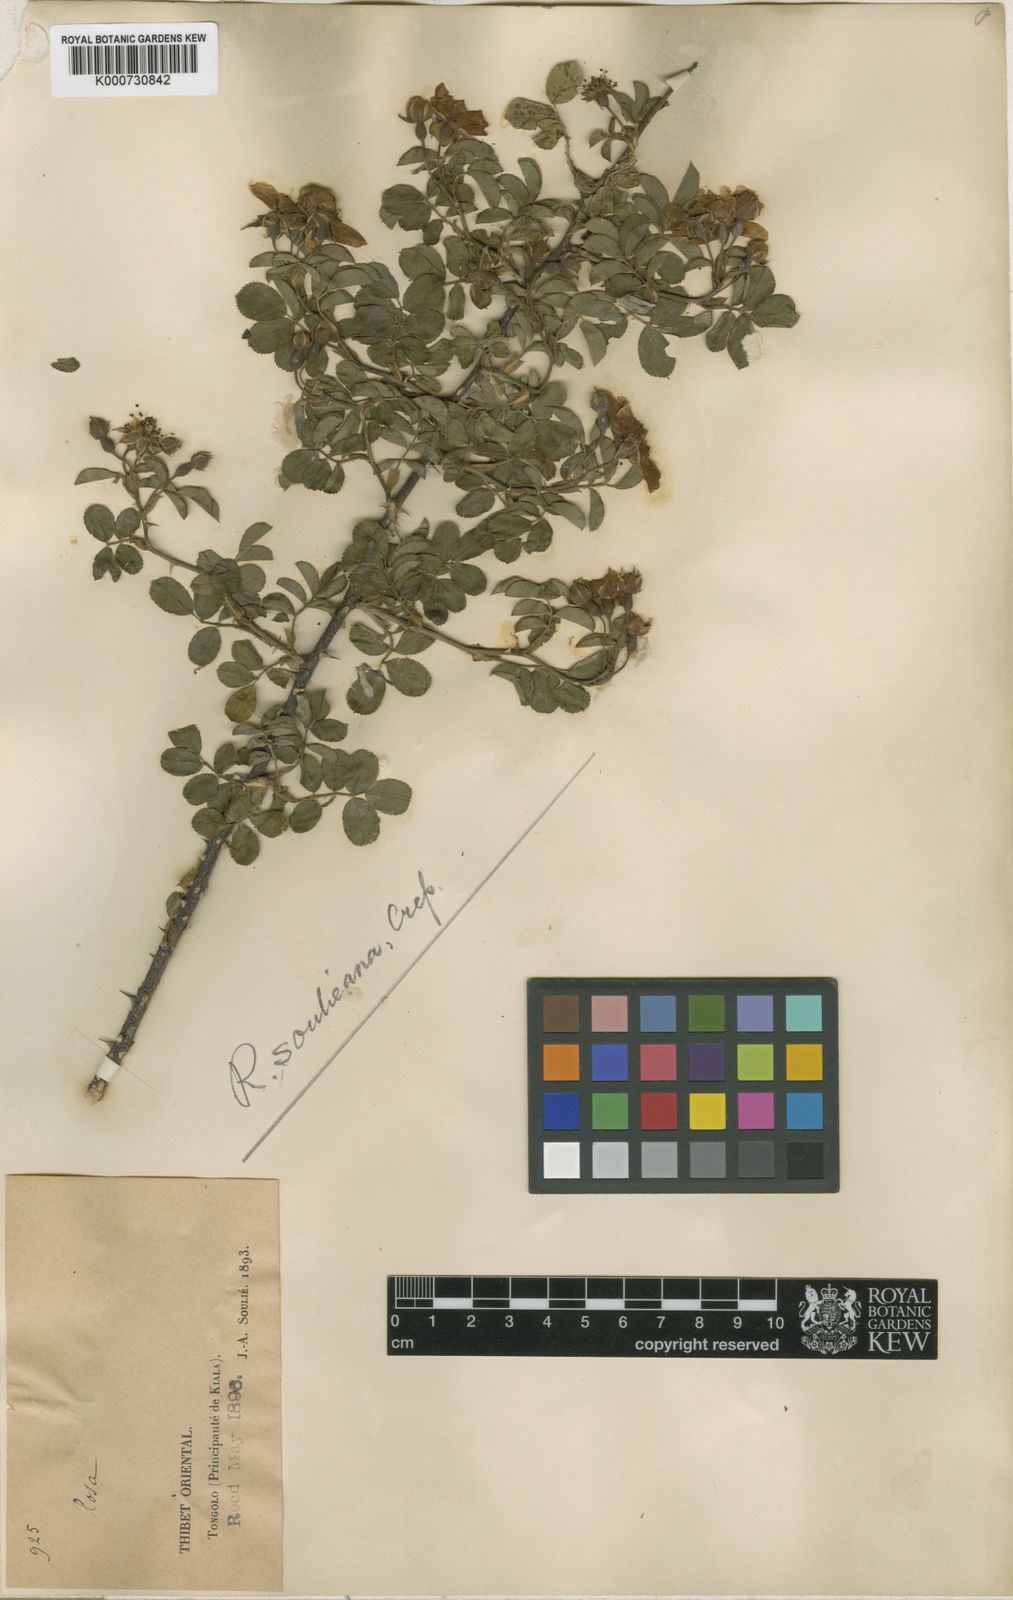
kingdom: Plantae
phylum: Tracheophyta
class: Magnoliopsida
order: Rosales
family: Rosaceae
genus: Rosa
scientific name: Rosa
